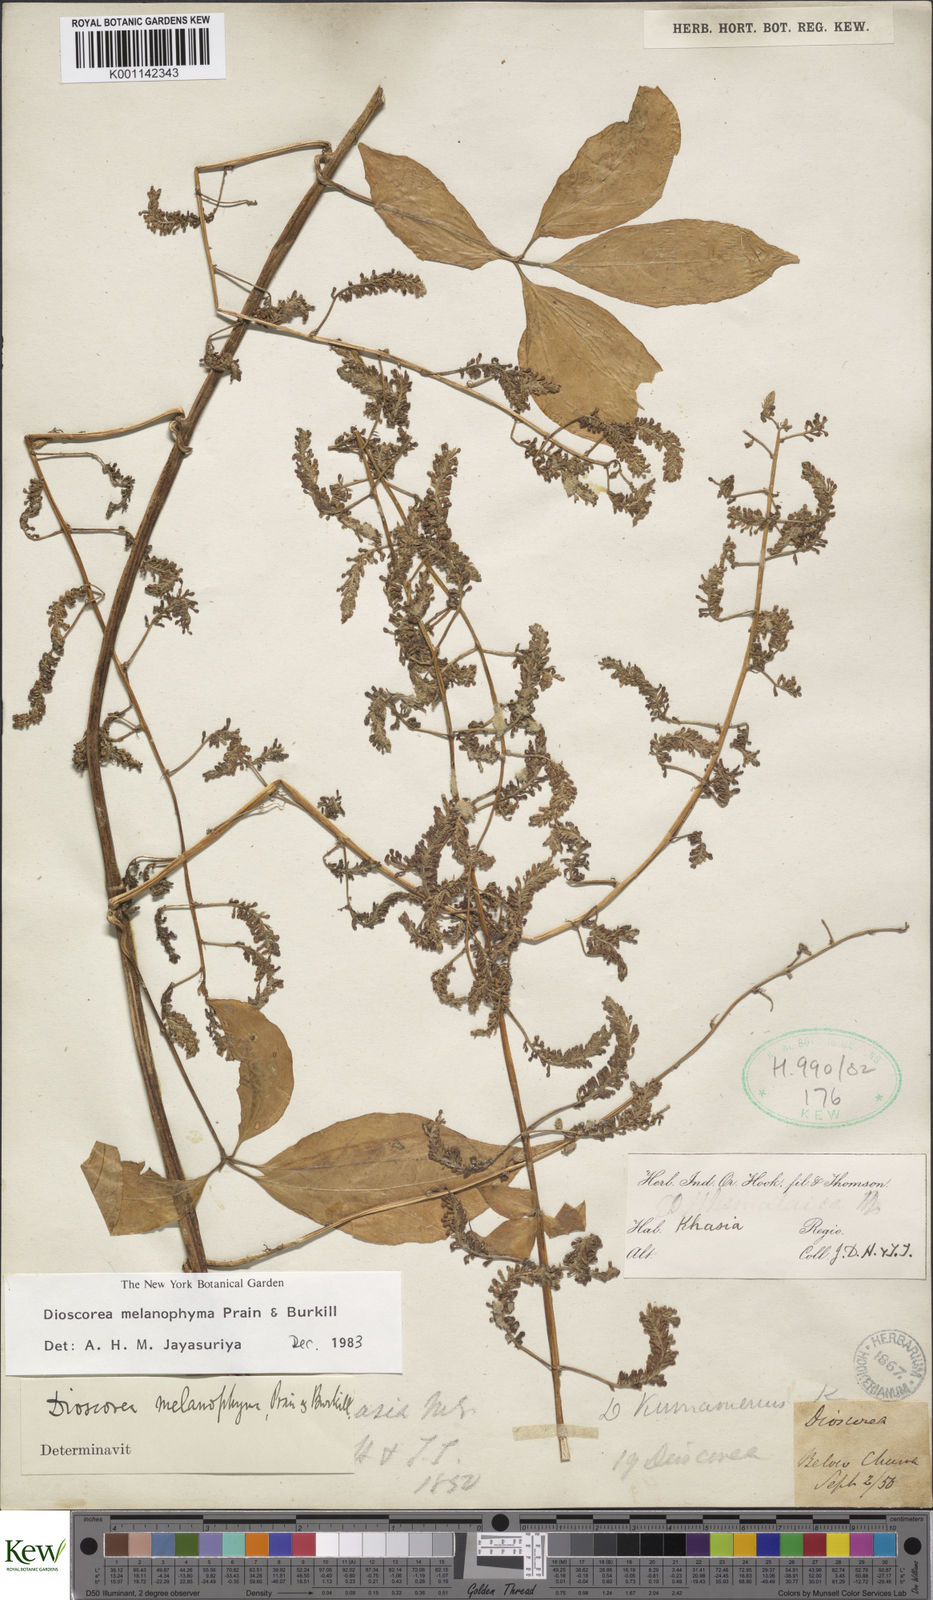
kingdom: Plantae
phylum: Tracheophyta
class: Liliopsida
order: Dioscoreales
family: Dioscoreaceae
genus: Dioscorea
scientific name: Dioscorea melanophyma
